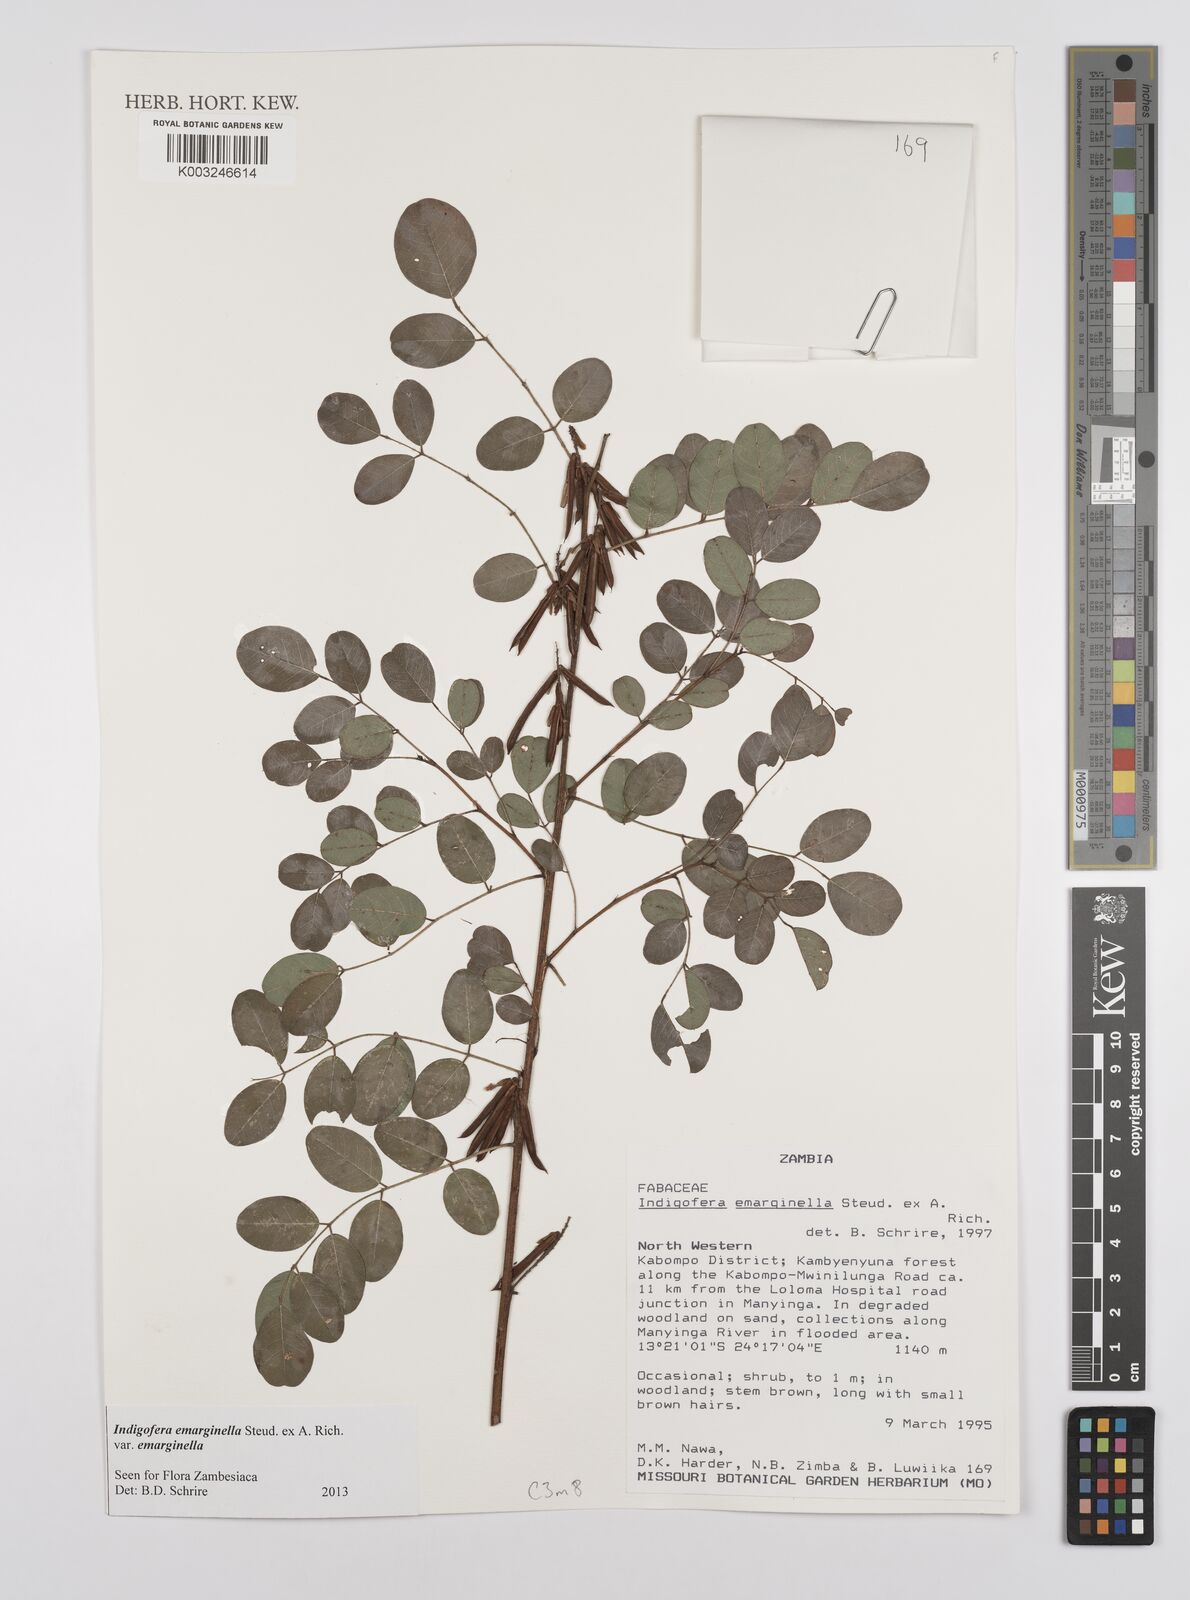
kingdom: Plantae
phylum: Tracheophyta
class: Magnoliopsida
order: Fabales
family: Fabaceae
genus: Indigofera
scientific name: Indigofera emarginella
